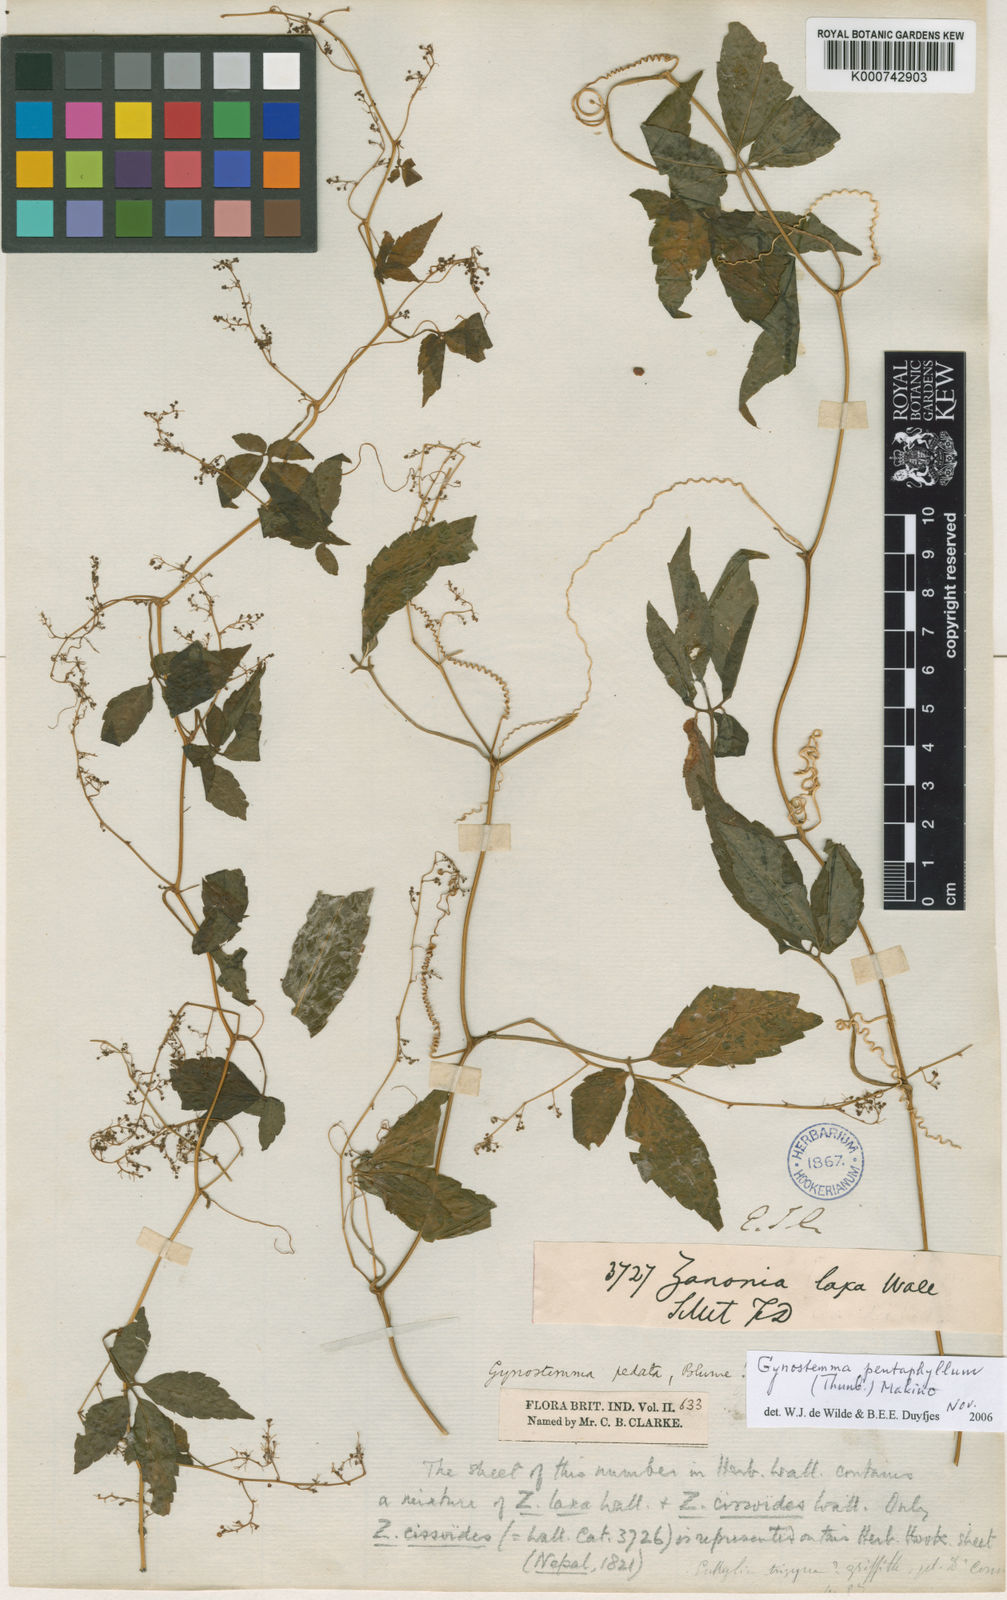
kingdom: Plantae
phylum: Tracheophyta
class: Magnoliopsida
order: Cucurbitales
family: Cucurbitaceae
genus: Gynostemma
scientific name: Gynostemma pentaphyllum
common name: Gynostemma
